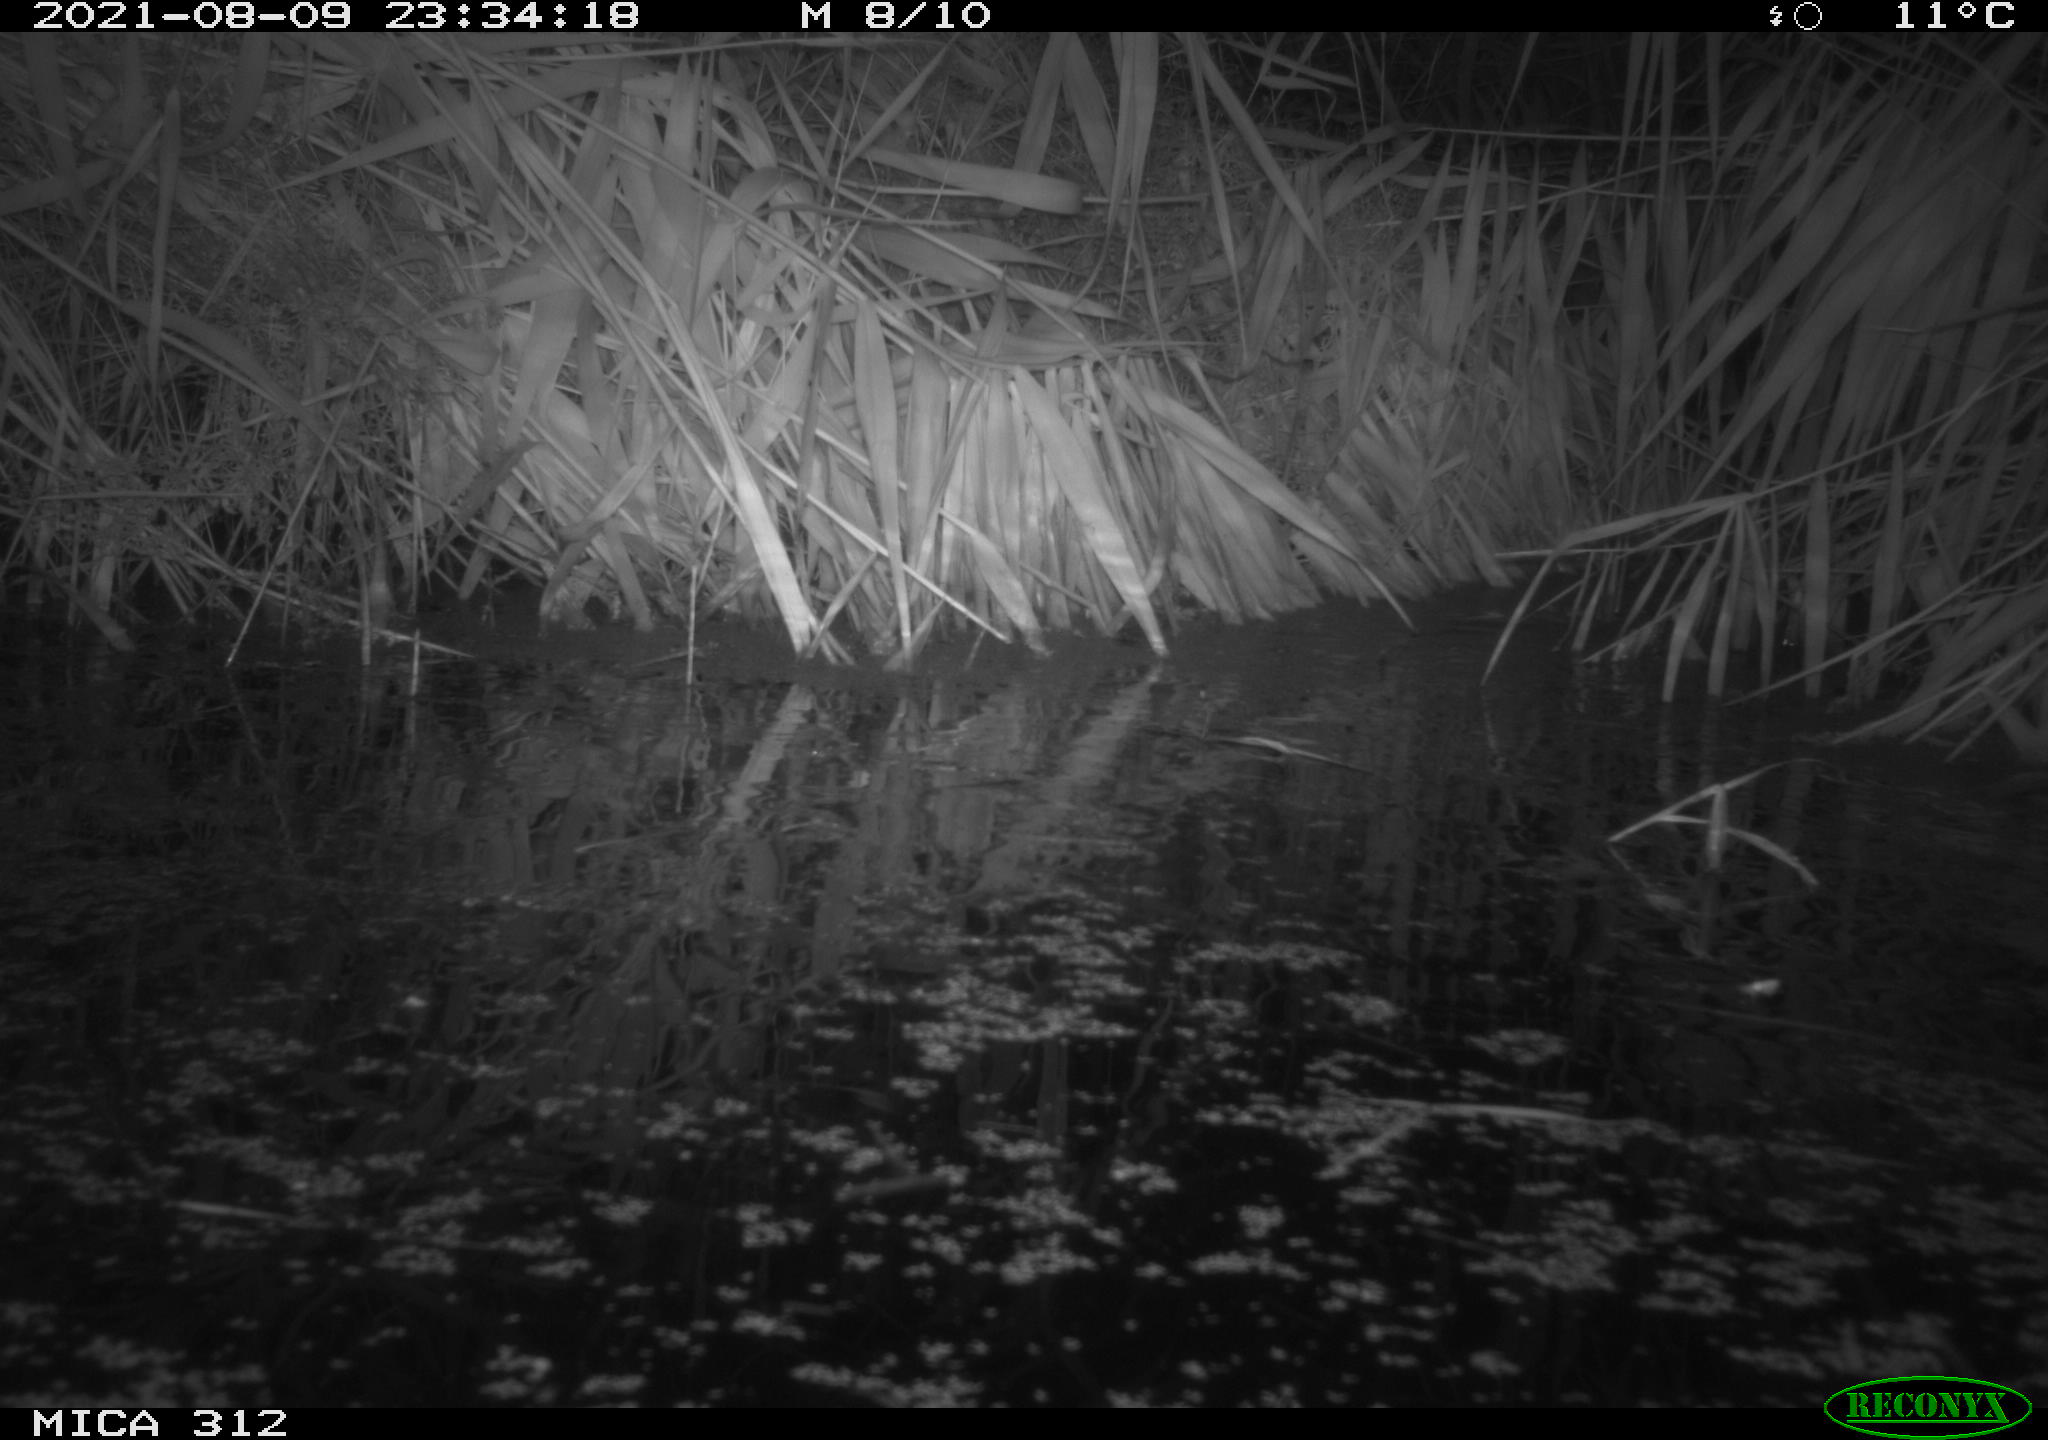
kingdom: Animalia
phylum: Chordata
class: Mammalia
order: Rodentia
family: Muridae
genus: Rattus
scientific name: Rattus norvegicus
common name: Brown rat
